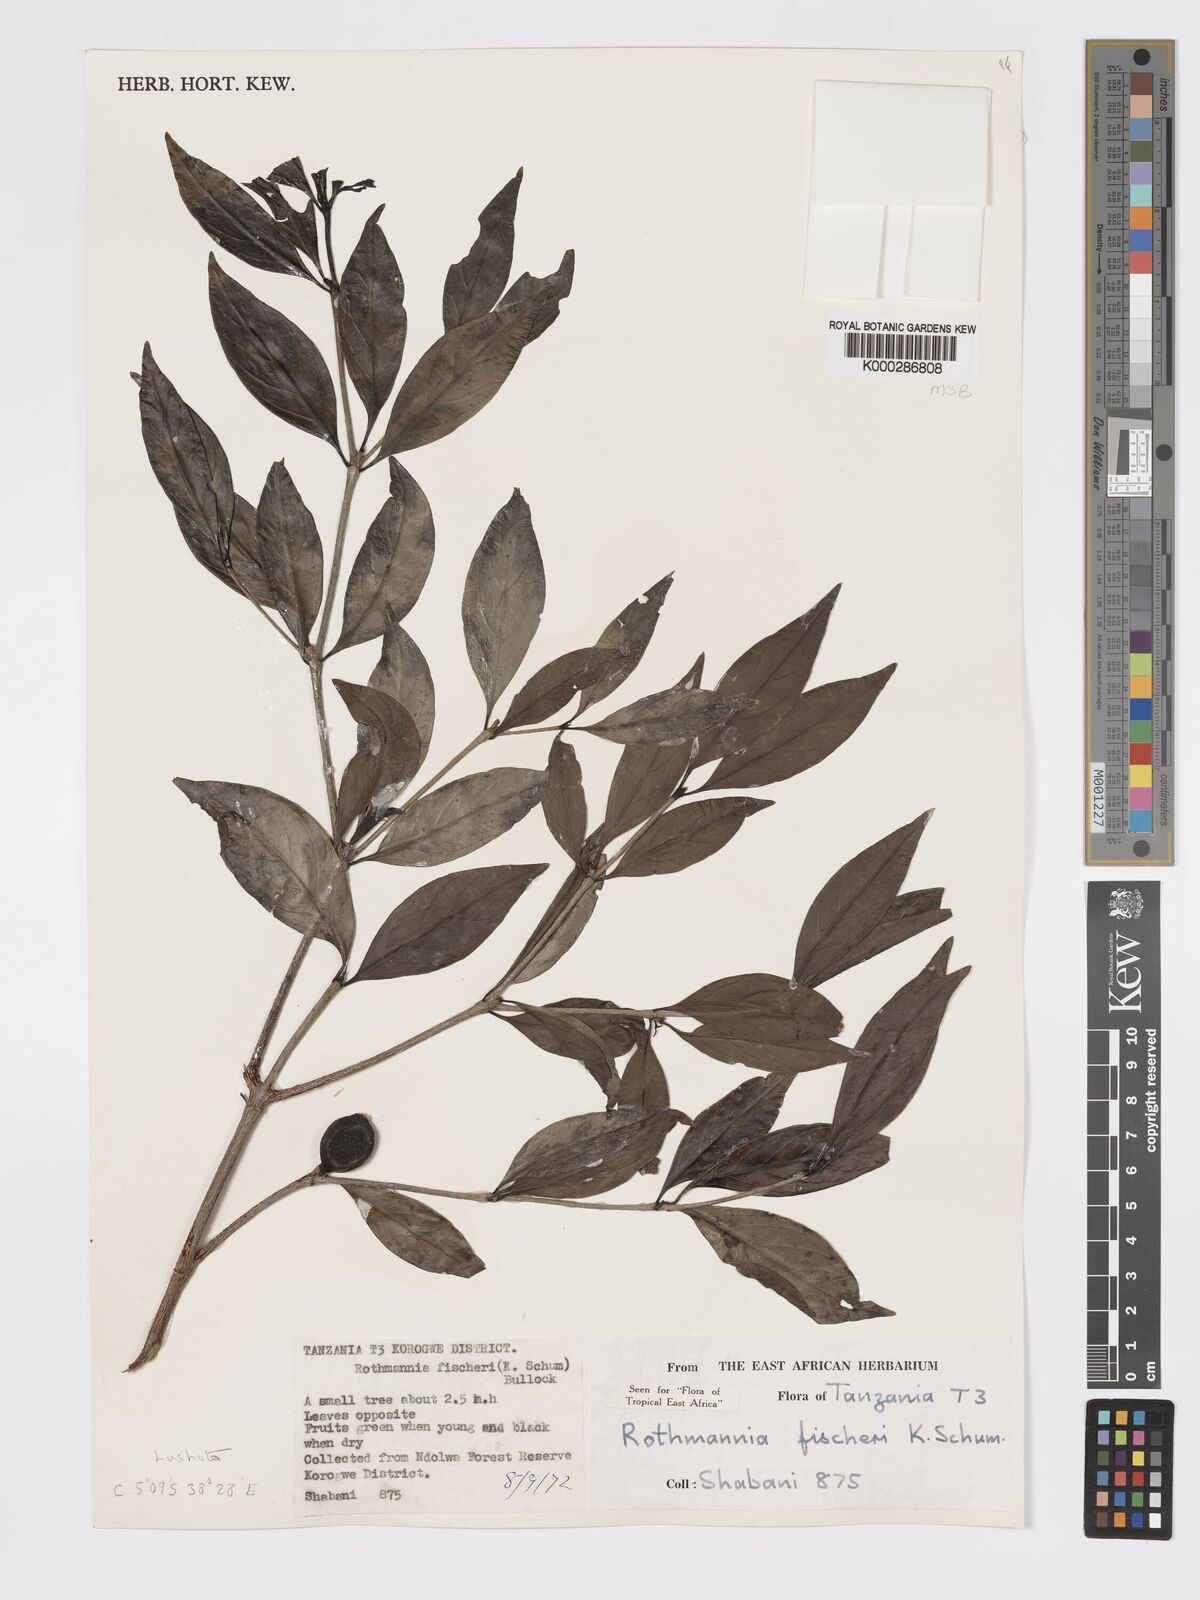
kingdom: Plantae
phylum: Tracheophyta
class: Magnoliopsida
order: Gentianales
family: Rubiaceae
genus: Rothmannia
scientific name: Rothmannia ravae
